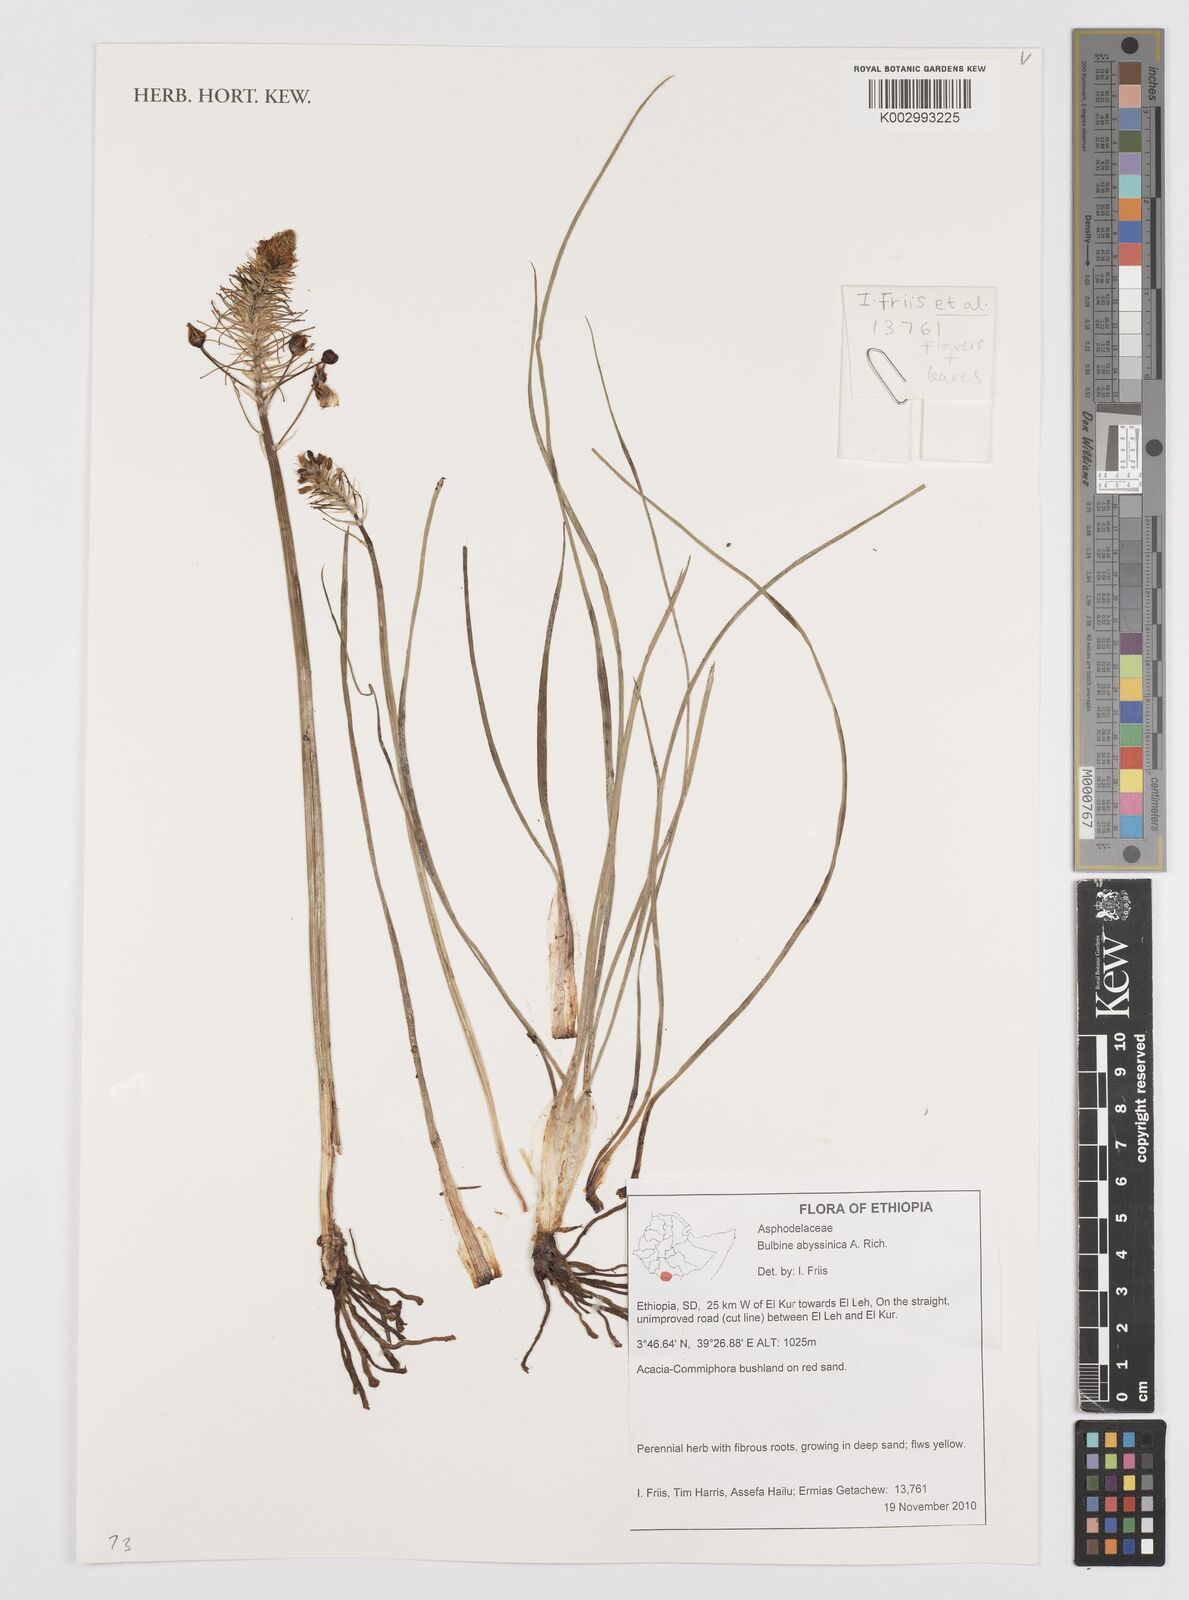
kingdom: Plantae
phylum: Tracheophyta
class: Liliopsida
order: Asparagales
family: Asphodelaceae
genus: Bulbine
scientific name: Bulbine abyssinica
